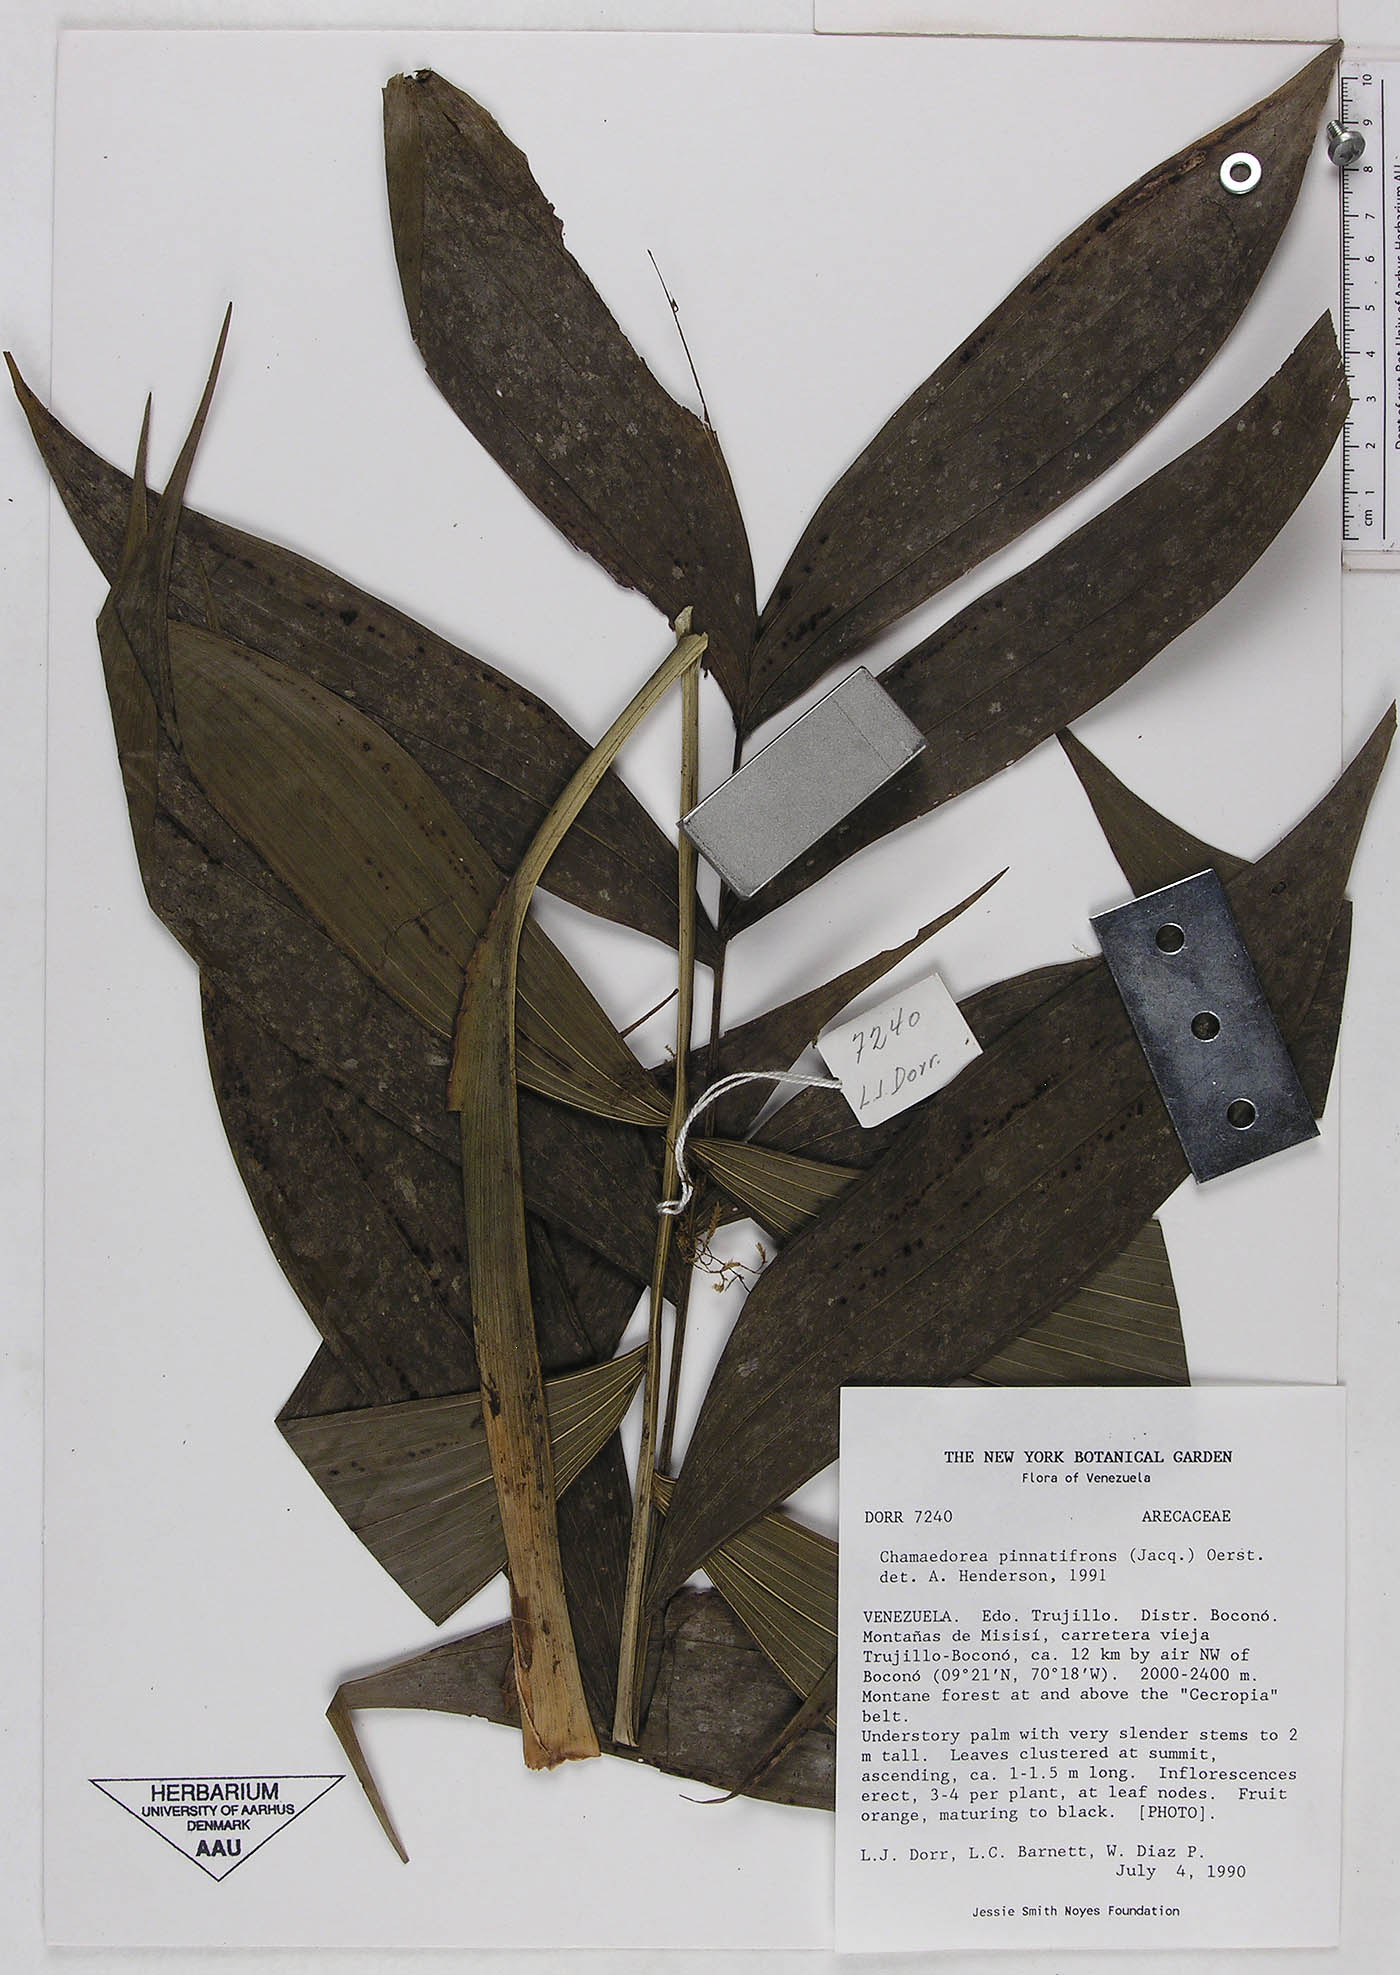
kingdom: Plantae
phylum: Tracheophyta
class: Liliopsida
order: Arecales
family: Arecaceae
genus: Chamaedorea
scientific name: Chamaedorea pinnatifrons
